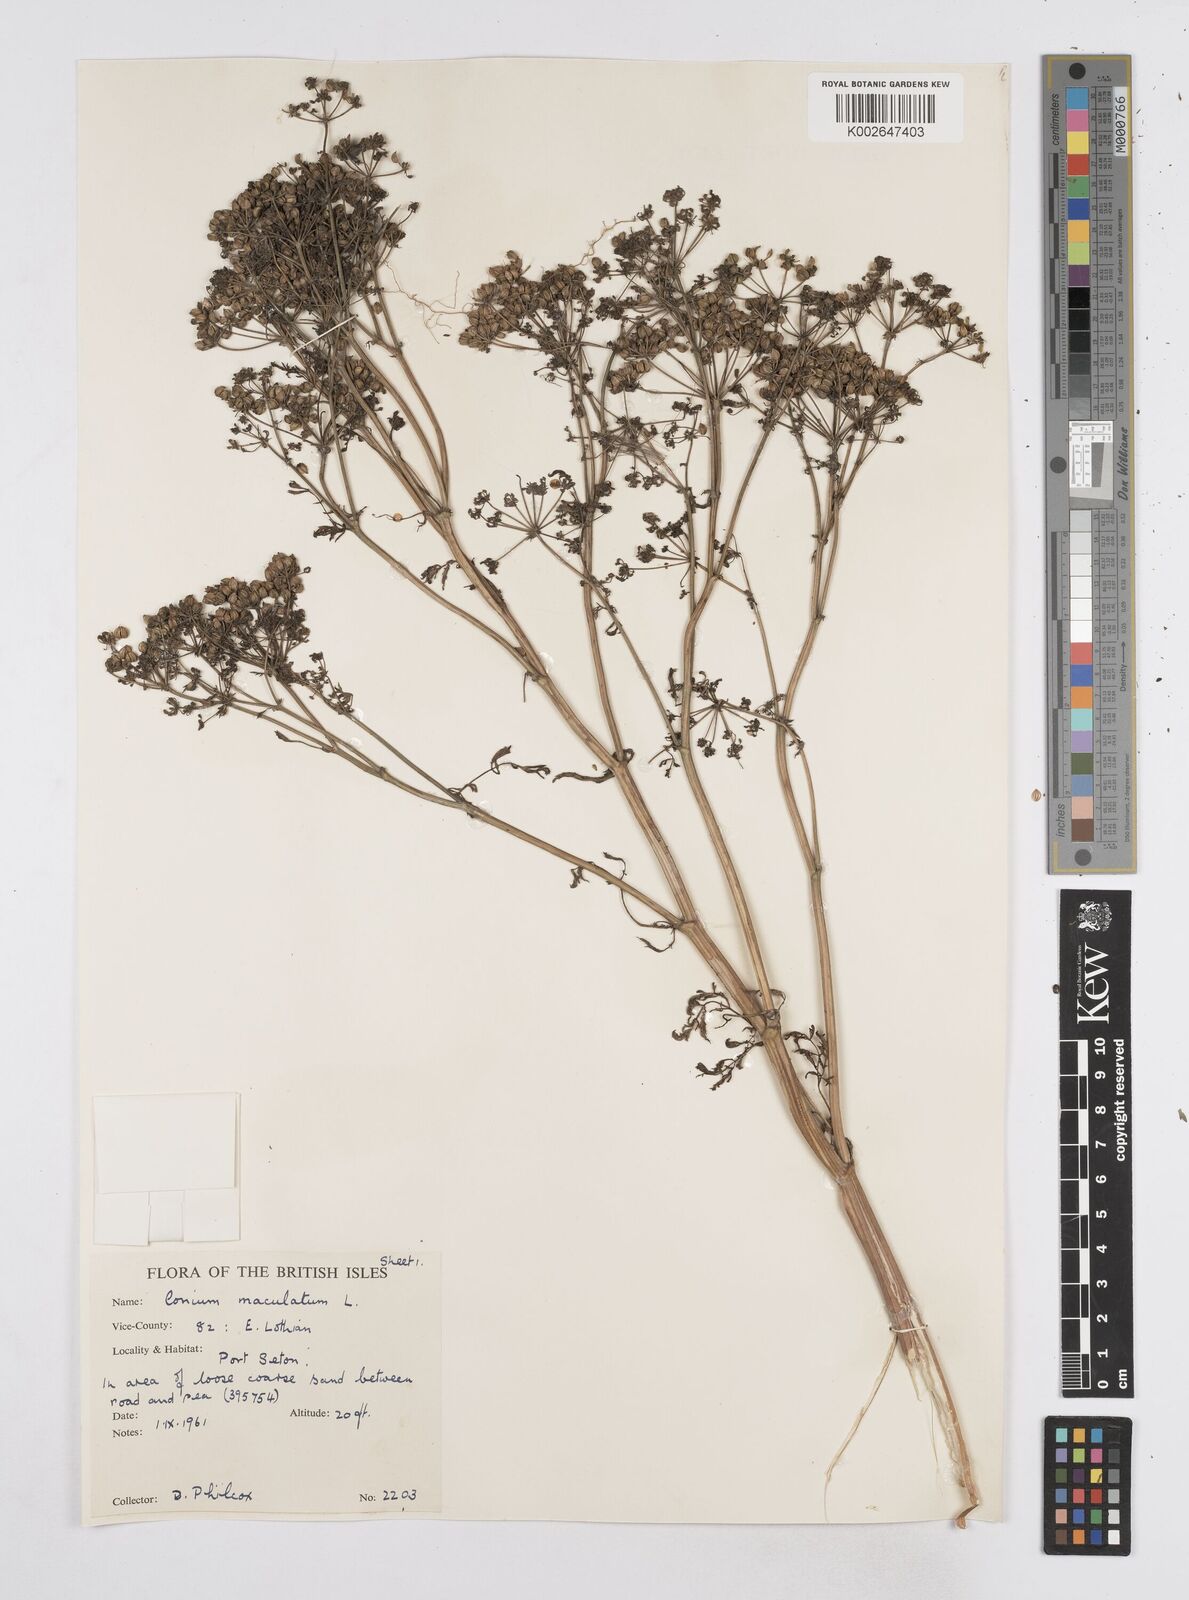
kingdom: Plantae
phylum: Tracheophyta
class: Magnoliopsida
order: Apiales
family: Apiaceae
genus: Conium
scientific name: Conium maculatum
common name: Hemlock
